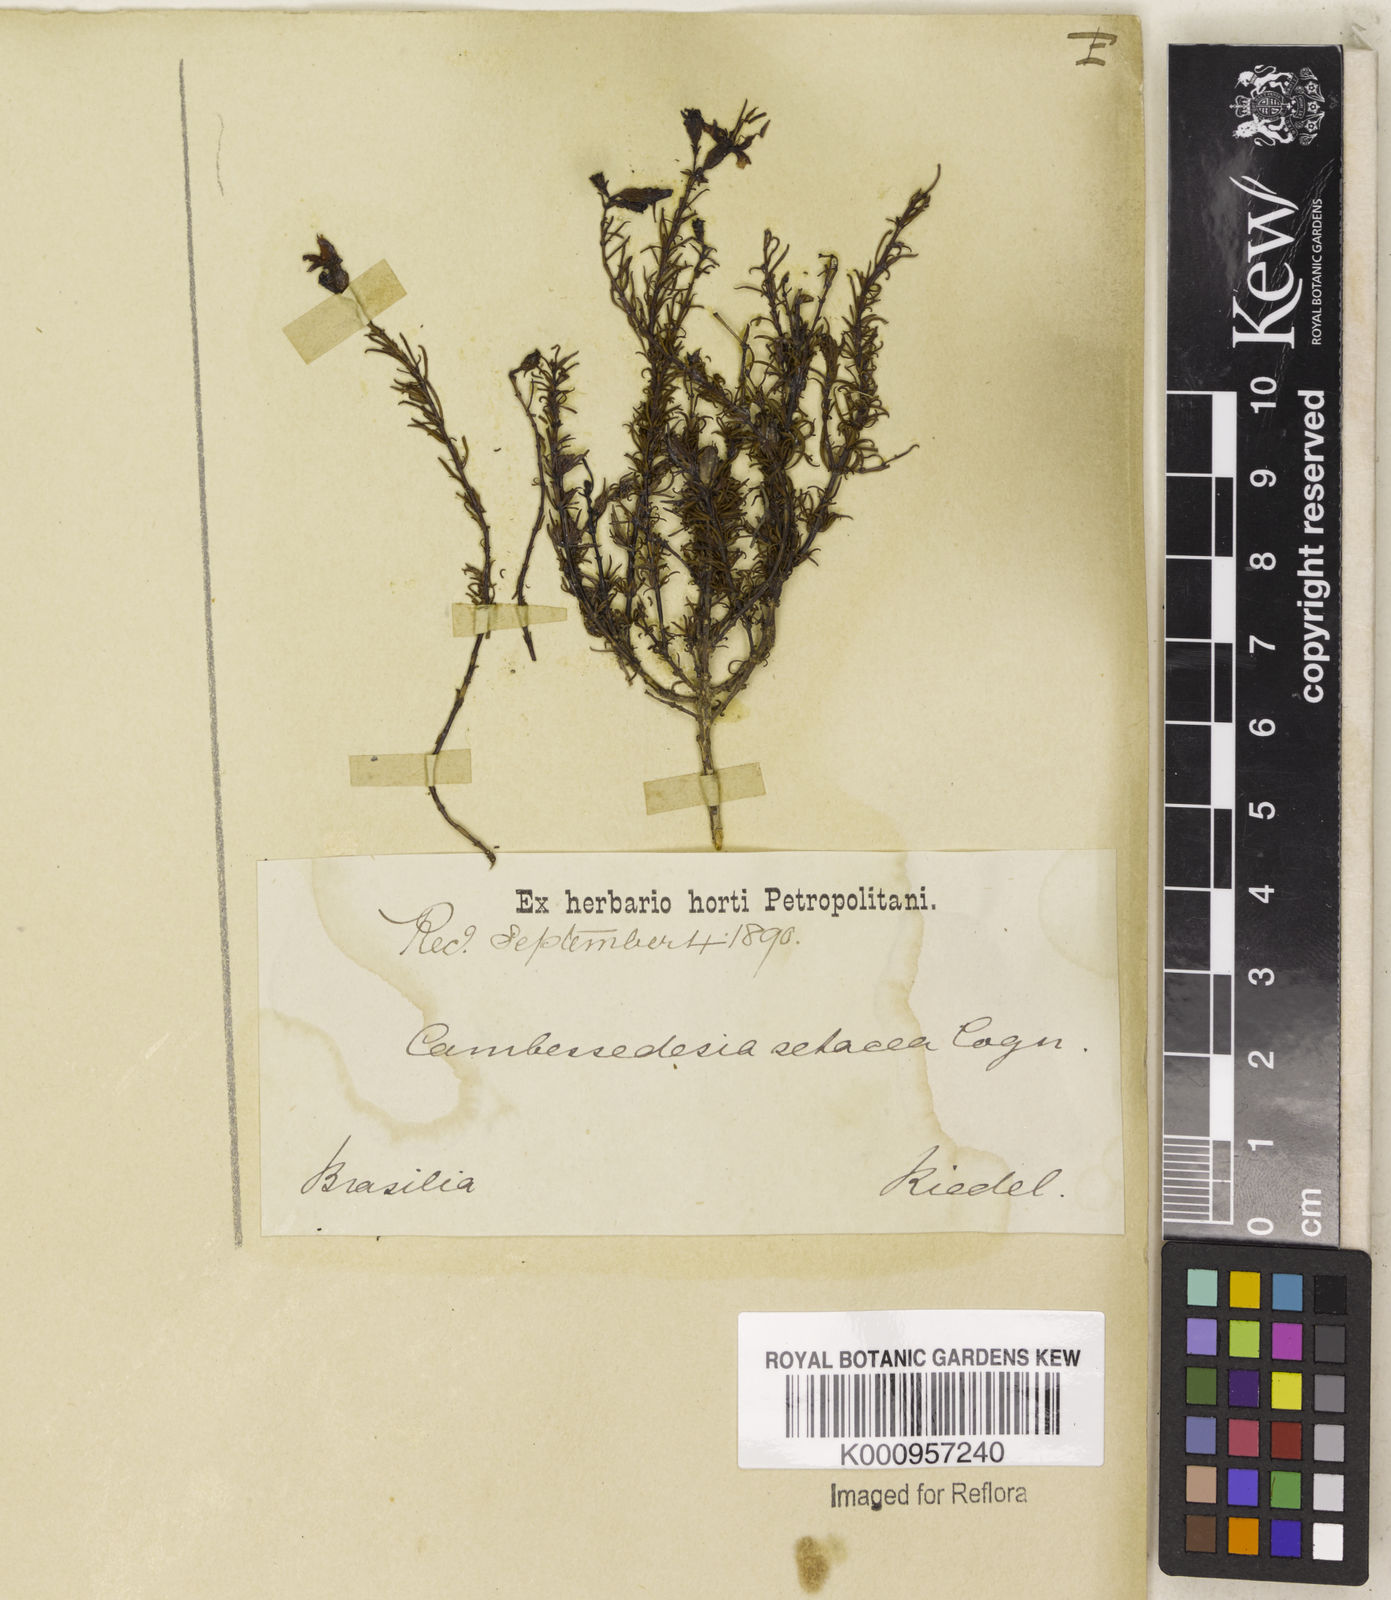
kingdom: Plantae
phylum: Tracheophyta
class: Magnoliopsida
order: Myrtales
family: Melastomataceae
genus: Cambessedesia
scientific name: Cambessedesia hilariana
